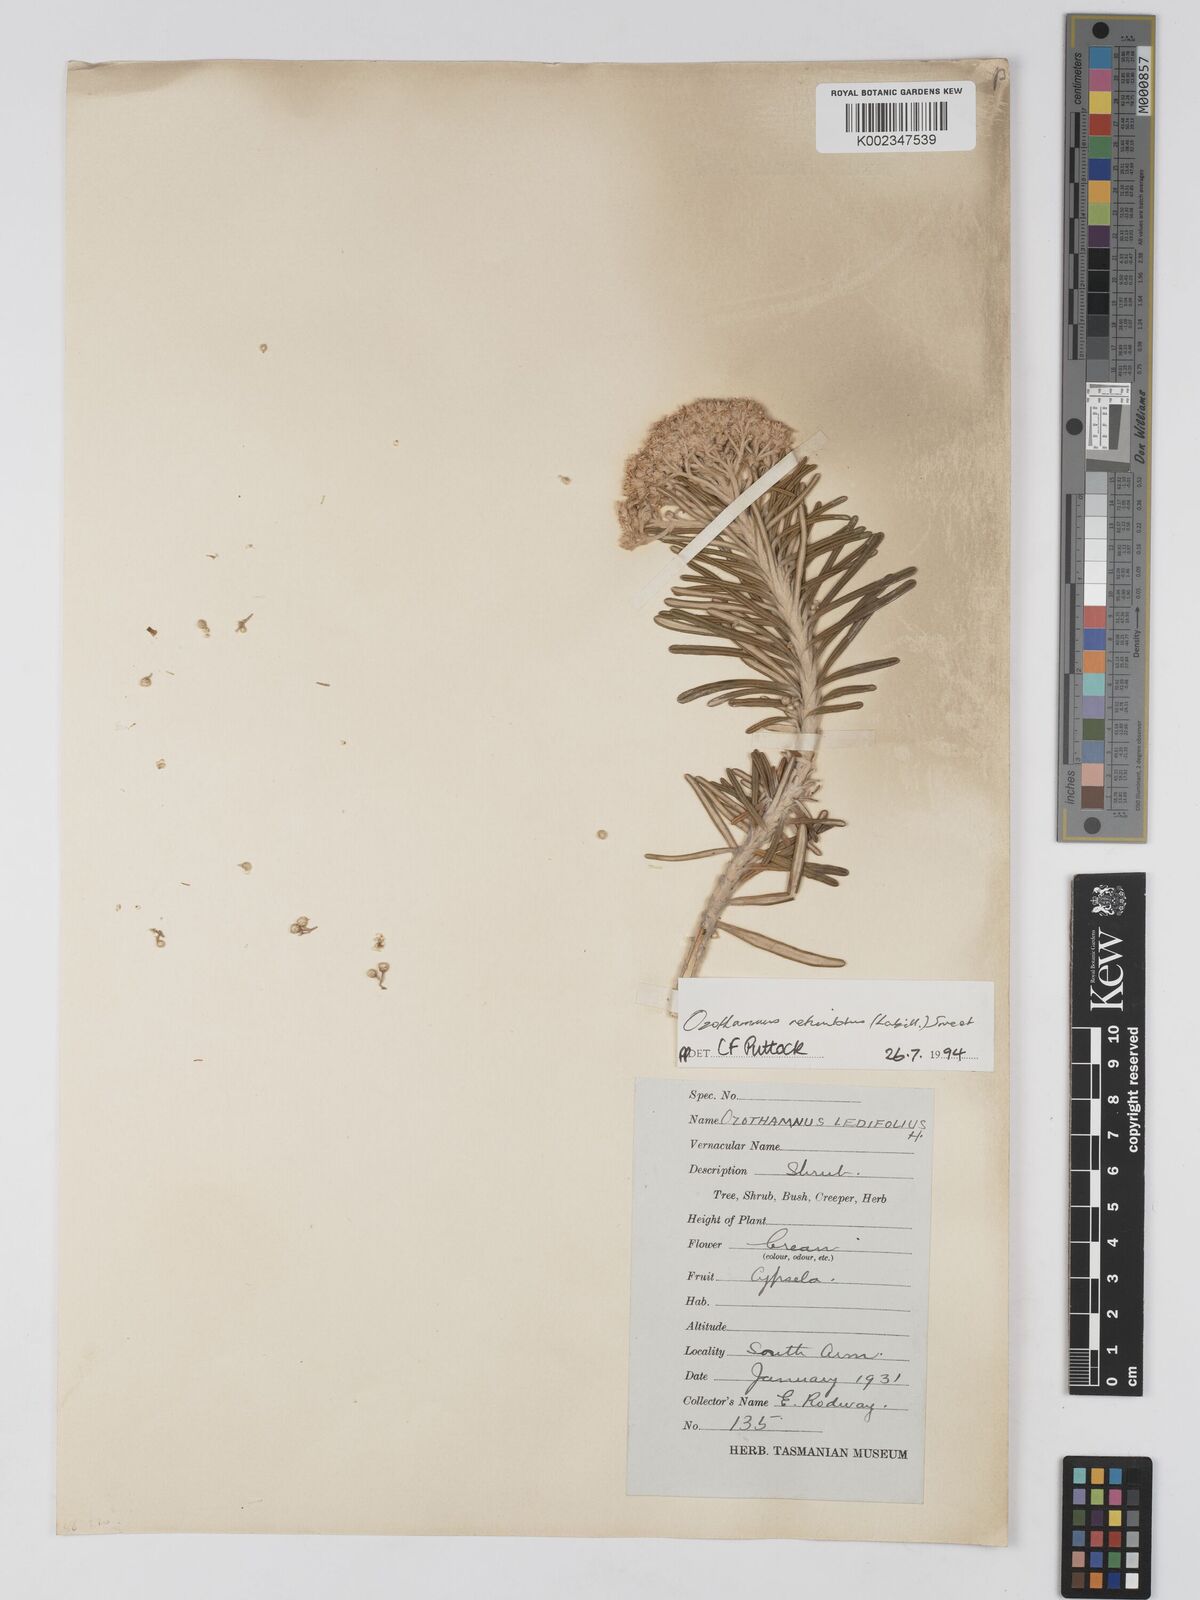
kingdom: Plantae
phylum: Tracheophyta
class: Magnoliopsida
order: Asterales
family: Asteraceae
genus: Ozothamnus
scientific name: Ozothamnus reticulatus
